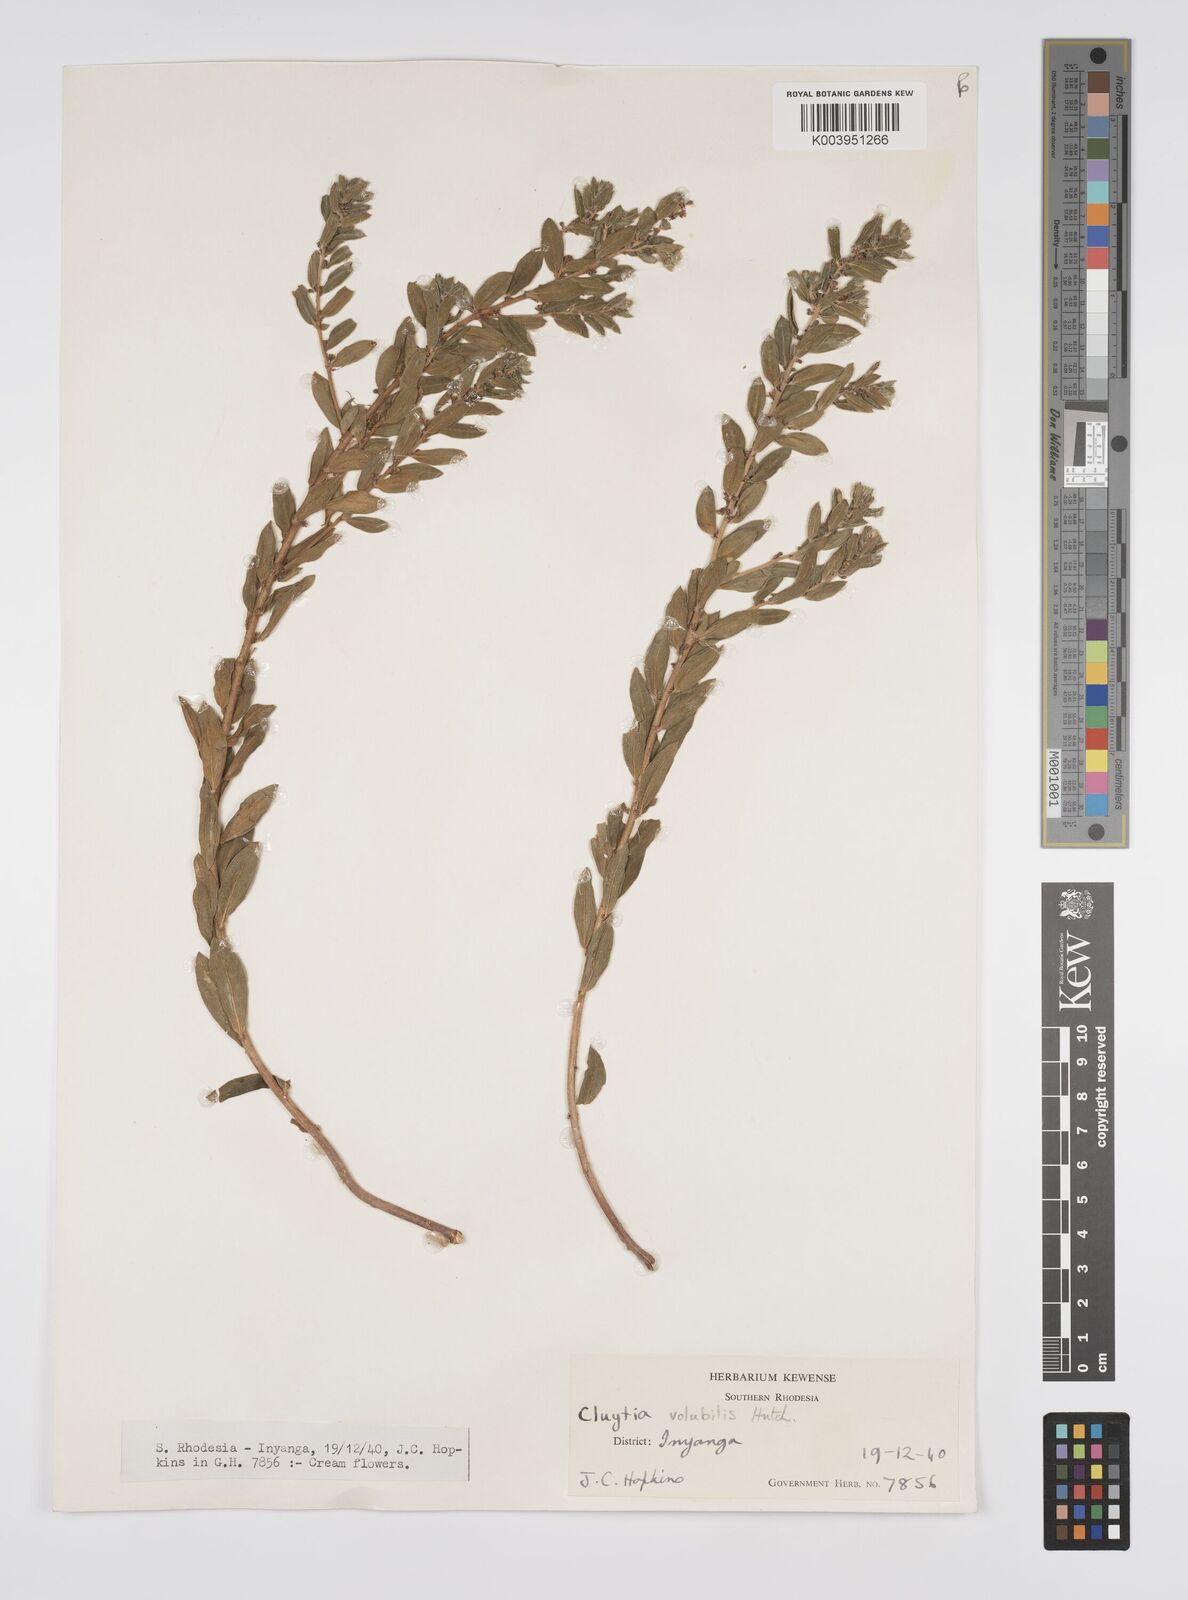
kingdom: Plantae
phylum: Tracheophyta
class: Magnoliopsida
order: Malpighiales
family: Peraceae
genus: Clutia
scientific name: Clutia
